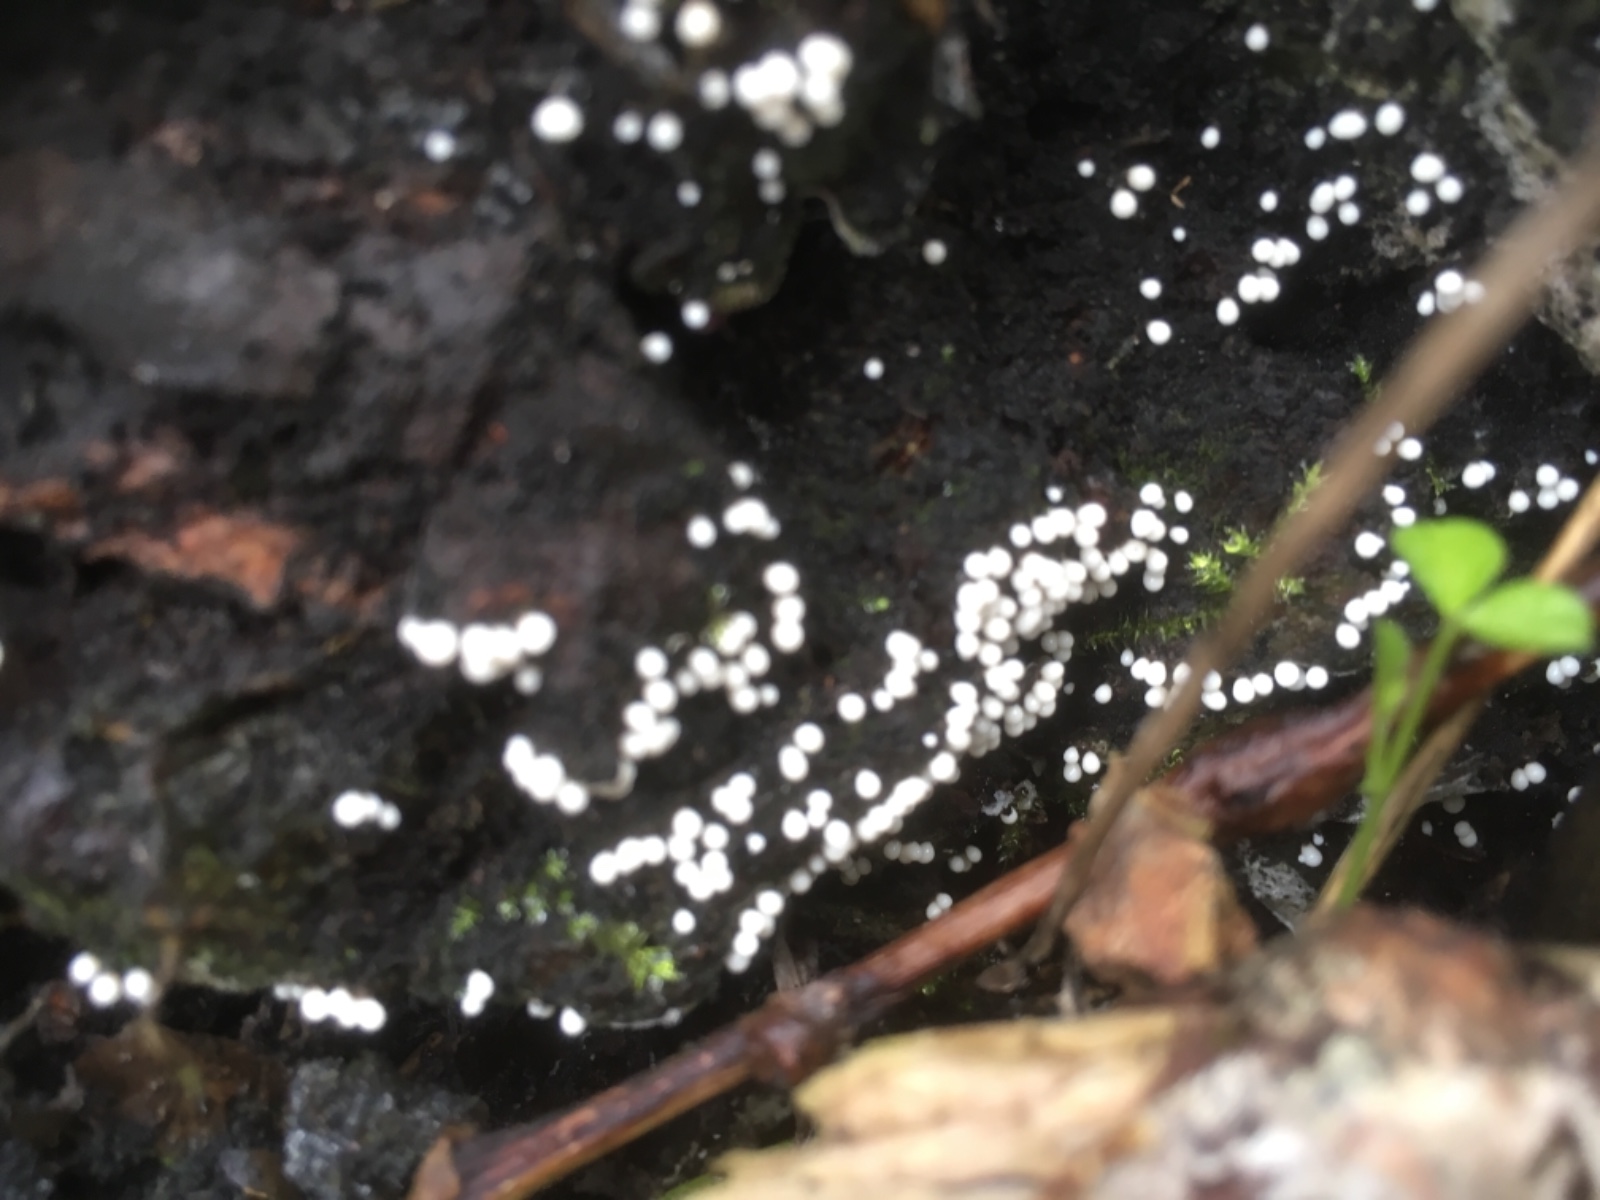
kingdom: Fungi
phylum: Basidiomycota
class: Agaricomycetes
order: Polyporales
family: Meruliaceae
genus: Bulbillomyces
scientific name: Bulbillomyces farinosus
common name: æg-kalkskind
